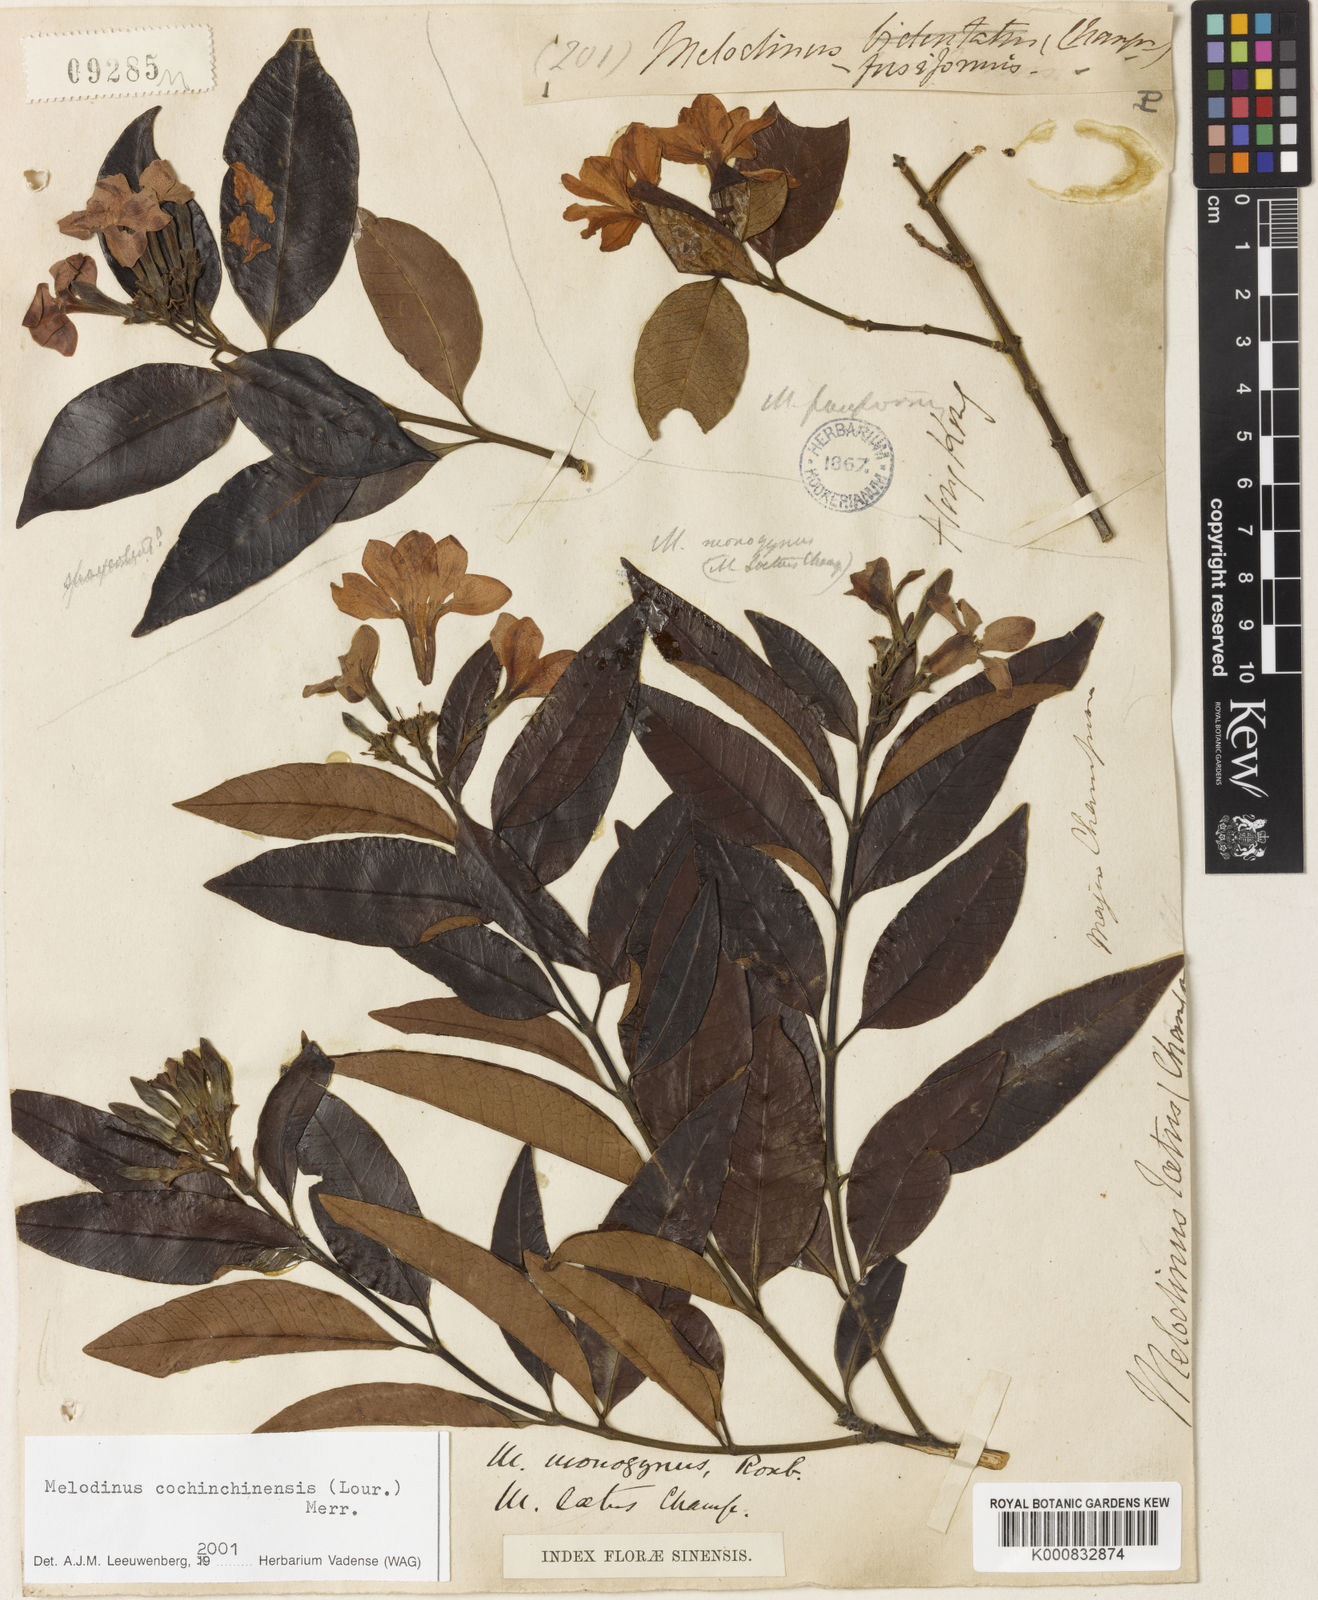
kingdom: Plantae
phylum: Tracheophyta
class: Magnoliopsida
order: Gentianales
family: Apocynaceae
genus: Melodinus
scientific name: Melodinus cochinchinensis
